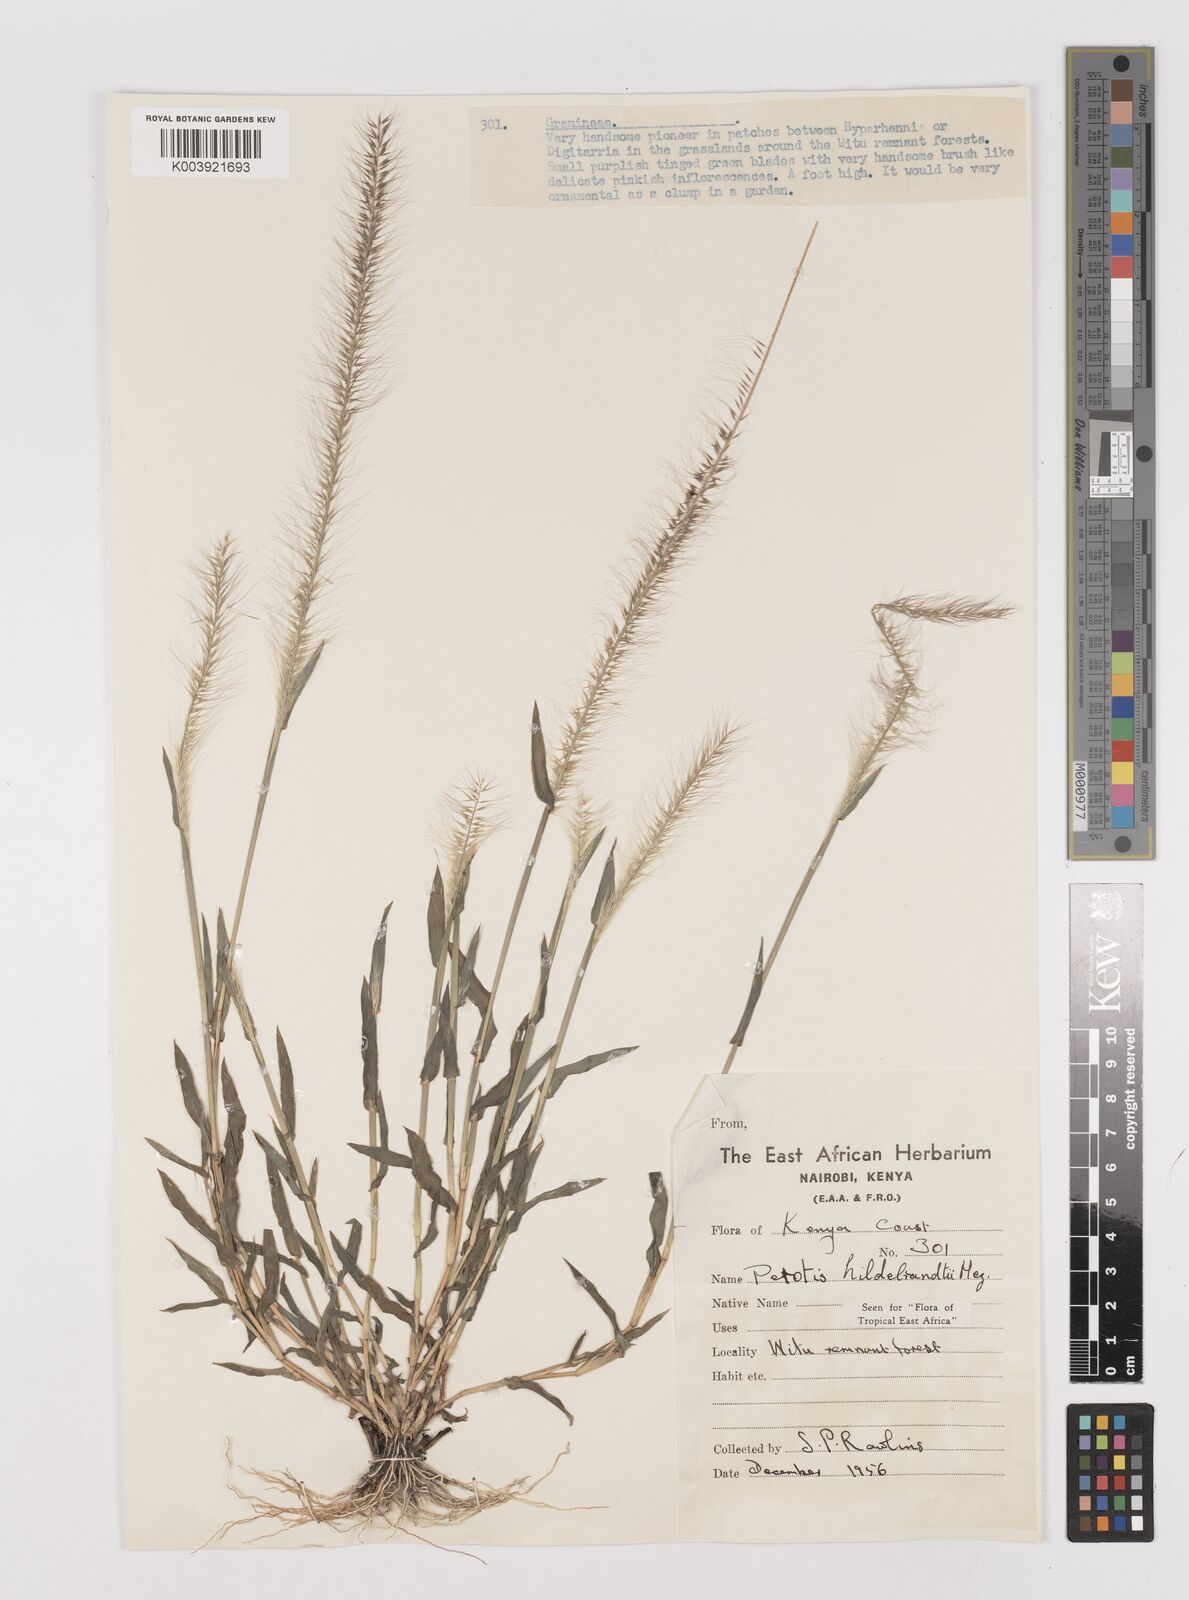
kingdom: Plantae
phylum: Tracheophyta
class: Liliopsida
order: Poales
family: Poaceae
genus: Perotis
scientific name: Perotis hildebrandtii
